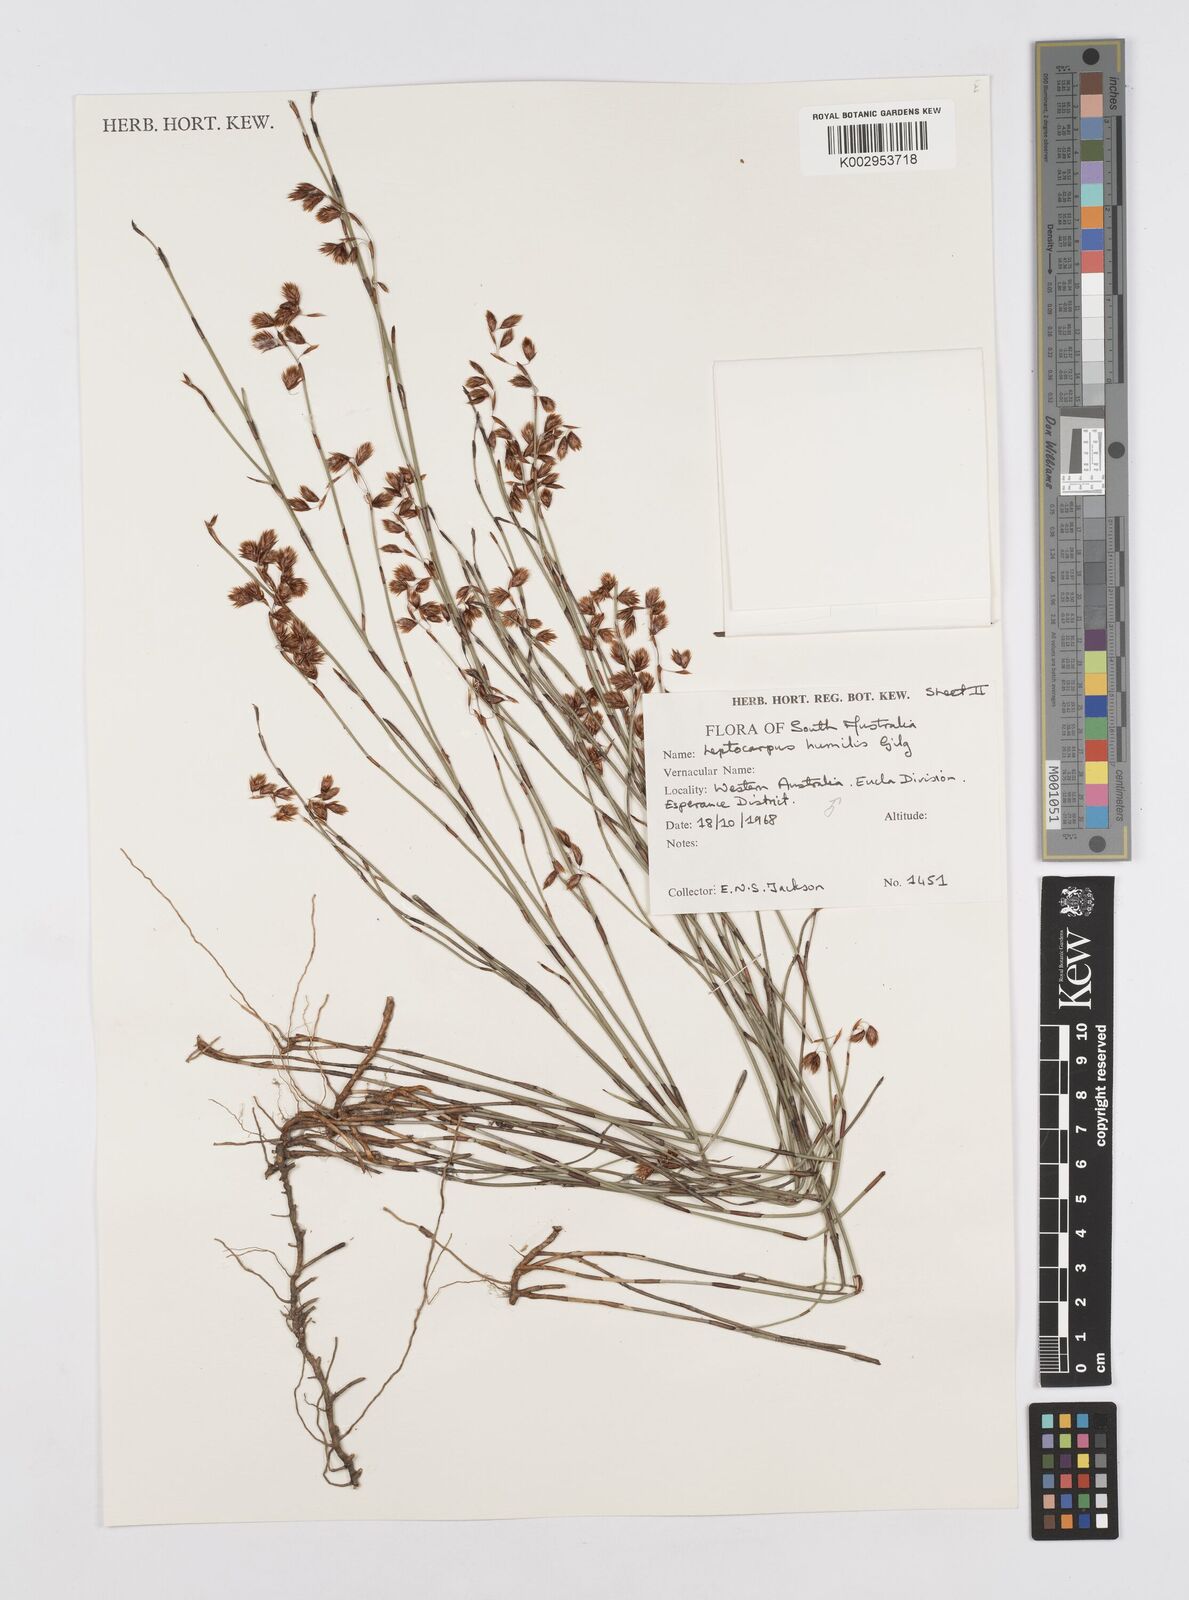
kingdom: Plantae
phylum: Tracheophyta
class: Liliopsida
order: Poales
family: Restionaceae
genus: Hypolaena
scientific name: Hypolaena humilis
